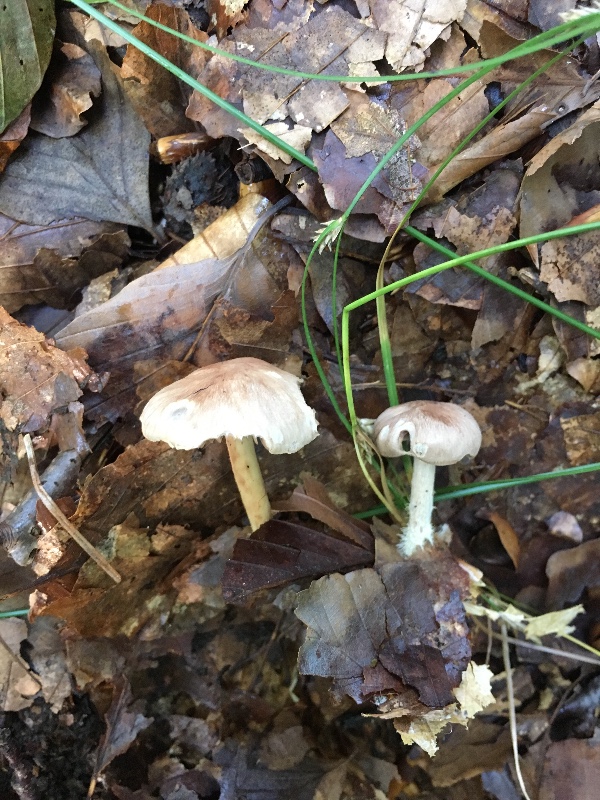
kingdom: Fungi
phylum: Basidiomycota
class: Agaricomycetes
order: Agaricales
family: Omphalotaceae
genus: Collybiopsis
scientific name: Collybiopsis peronata
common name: bestøvlet fladhat
